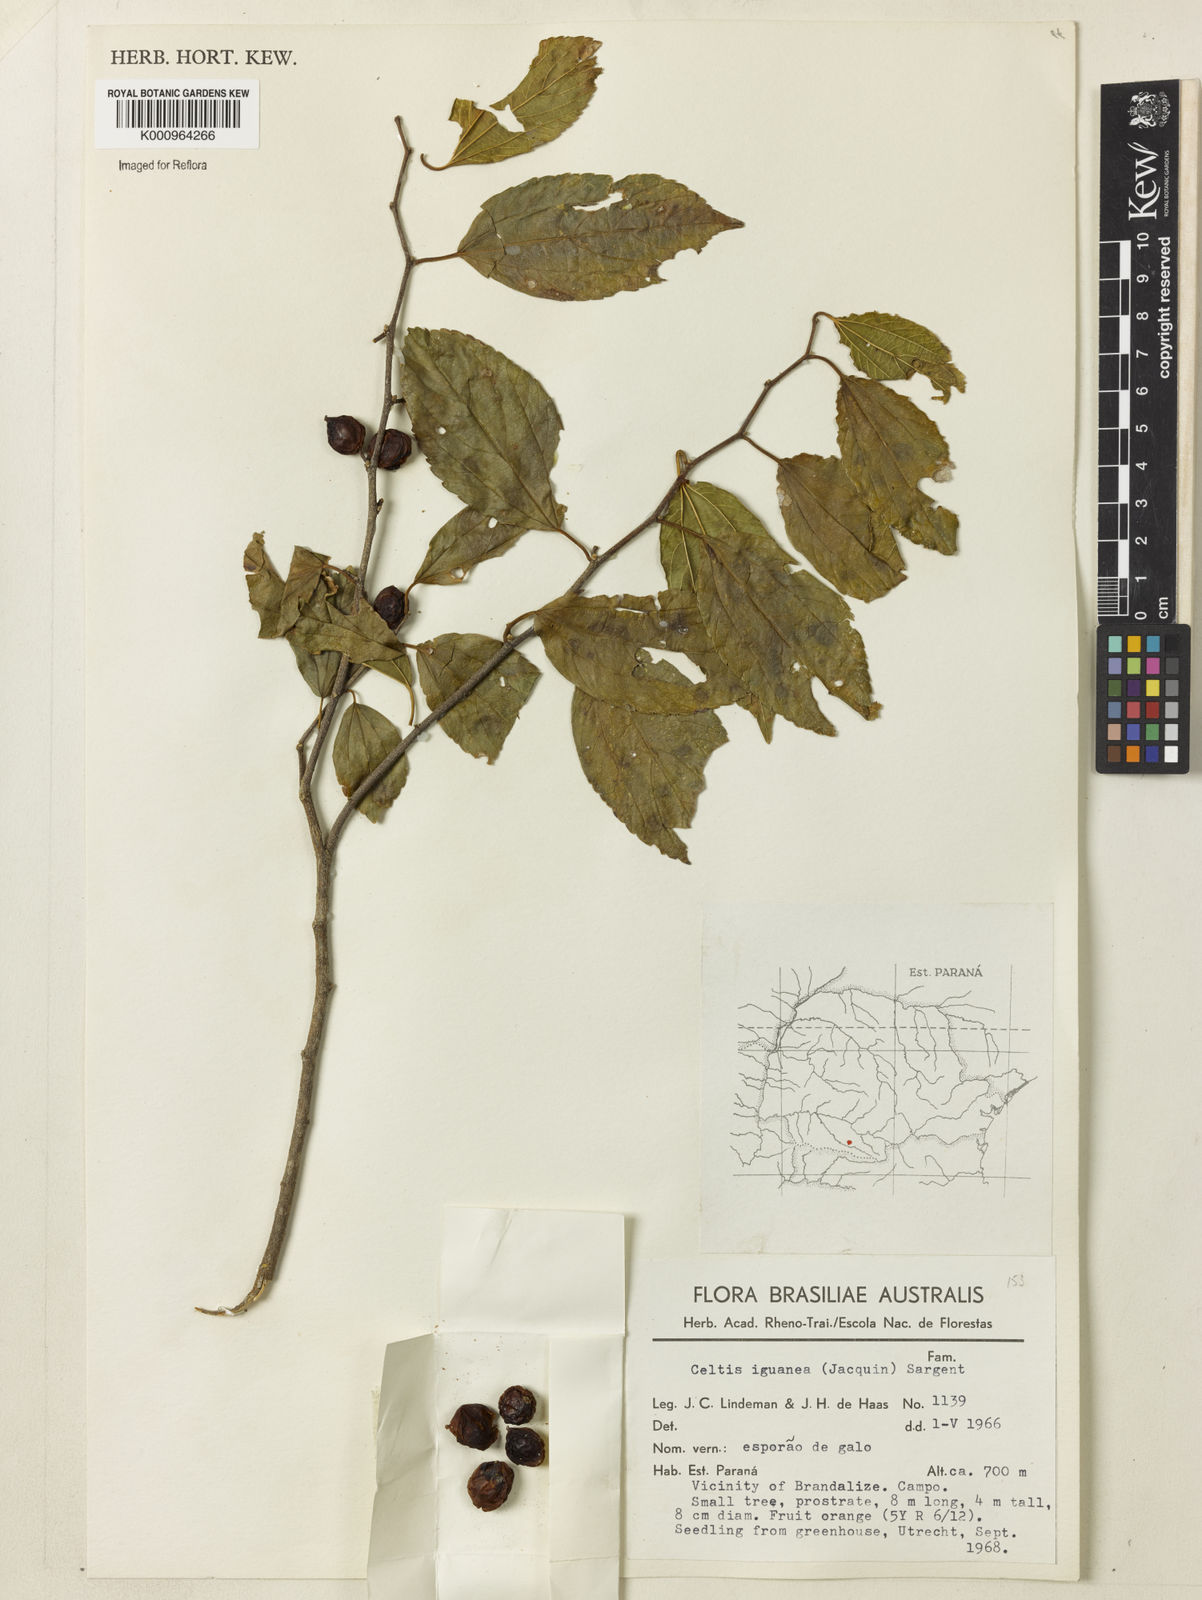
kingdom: Plantae
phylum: Tracheophyta
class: Magnoliopsida
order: Rosales
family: Cannabaceae
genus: Celtis
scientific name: Celtis iguanaea
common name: Iguana hackberry
